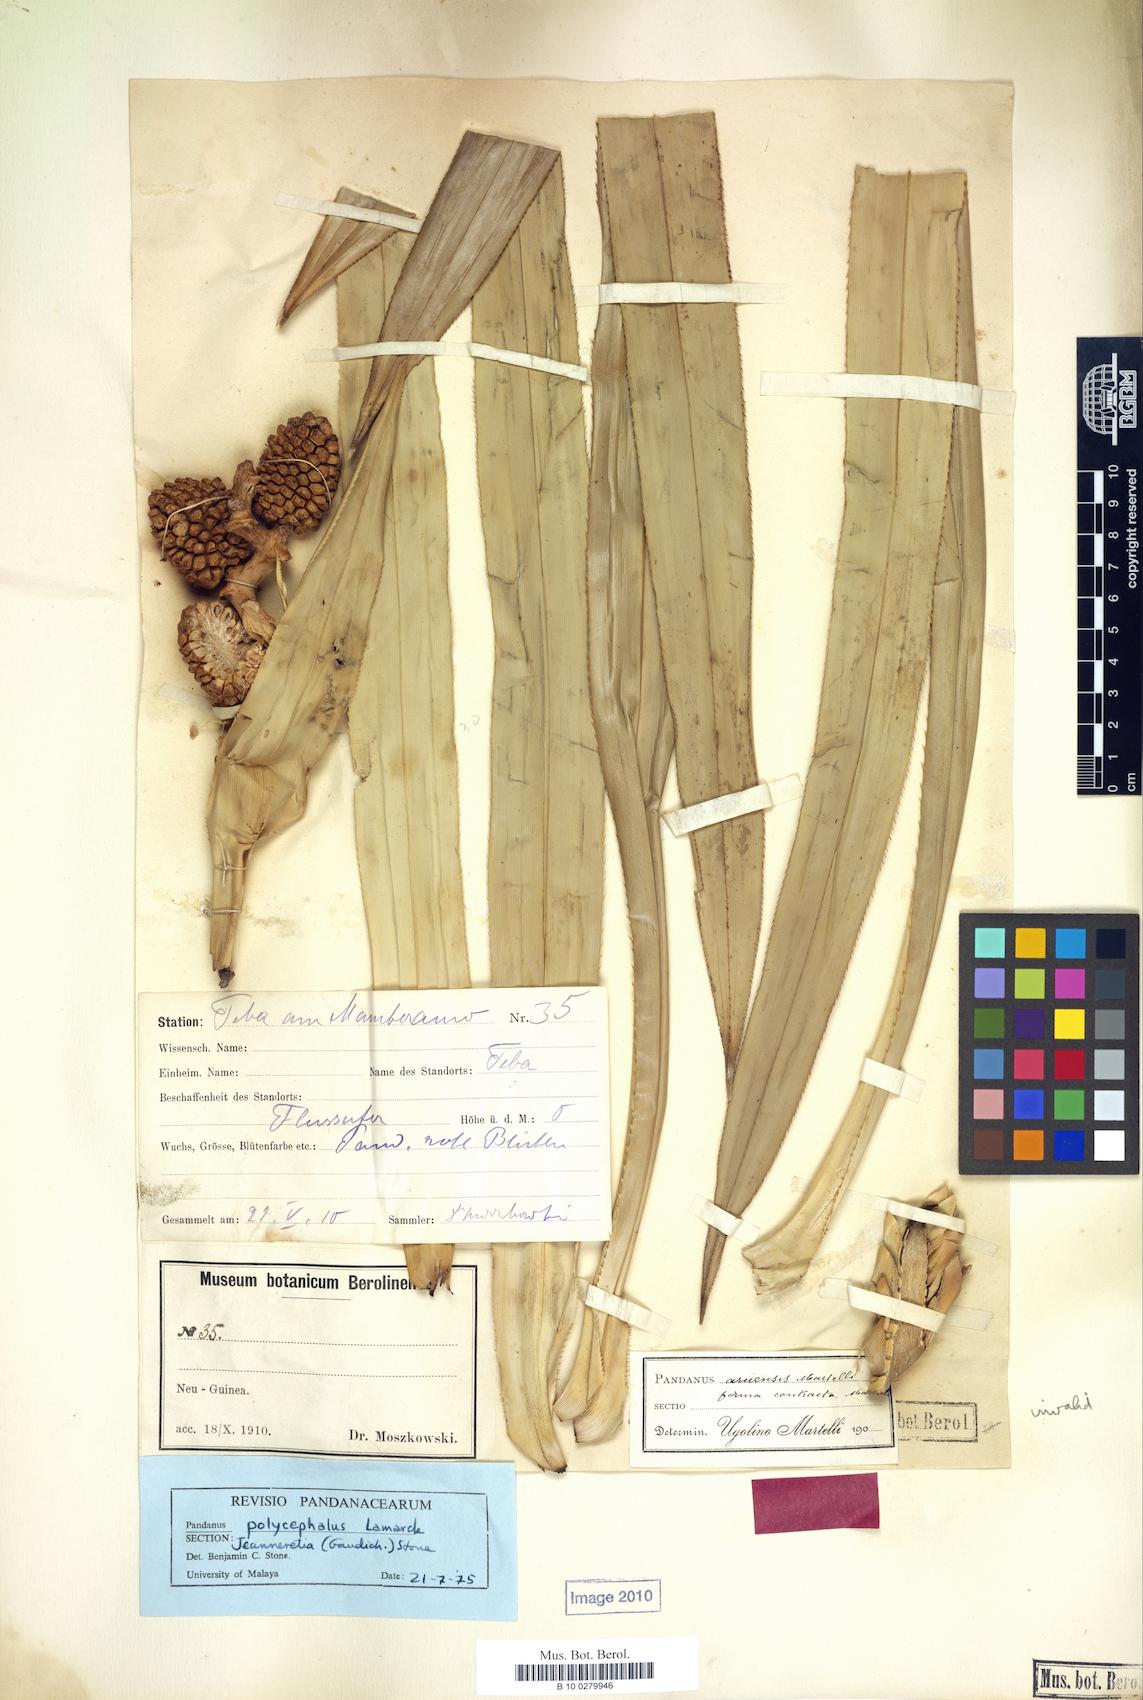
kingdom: Plantae
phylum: Tracheophyta
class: Liliopsida
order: Pandanales
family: Pandanaceae
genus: Pandanus
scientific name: Pandanus polycephalus
